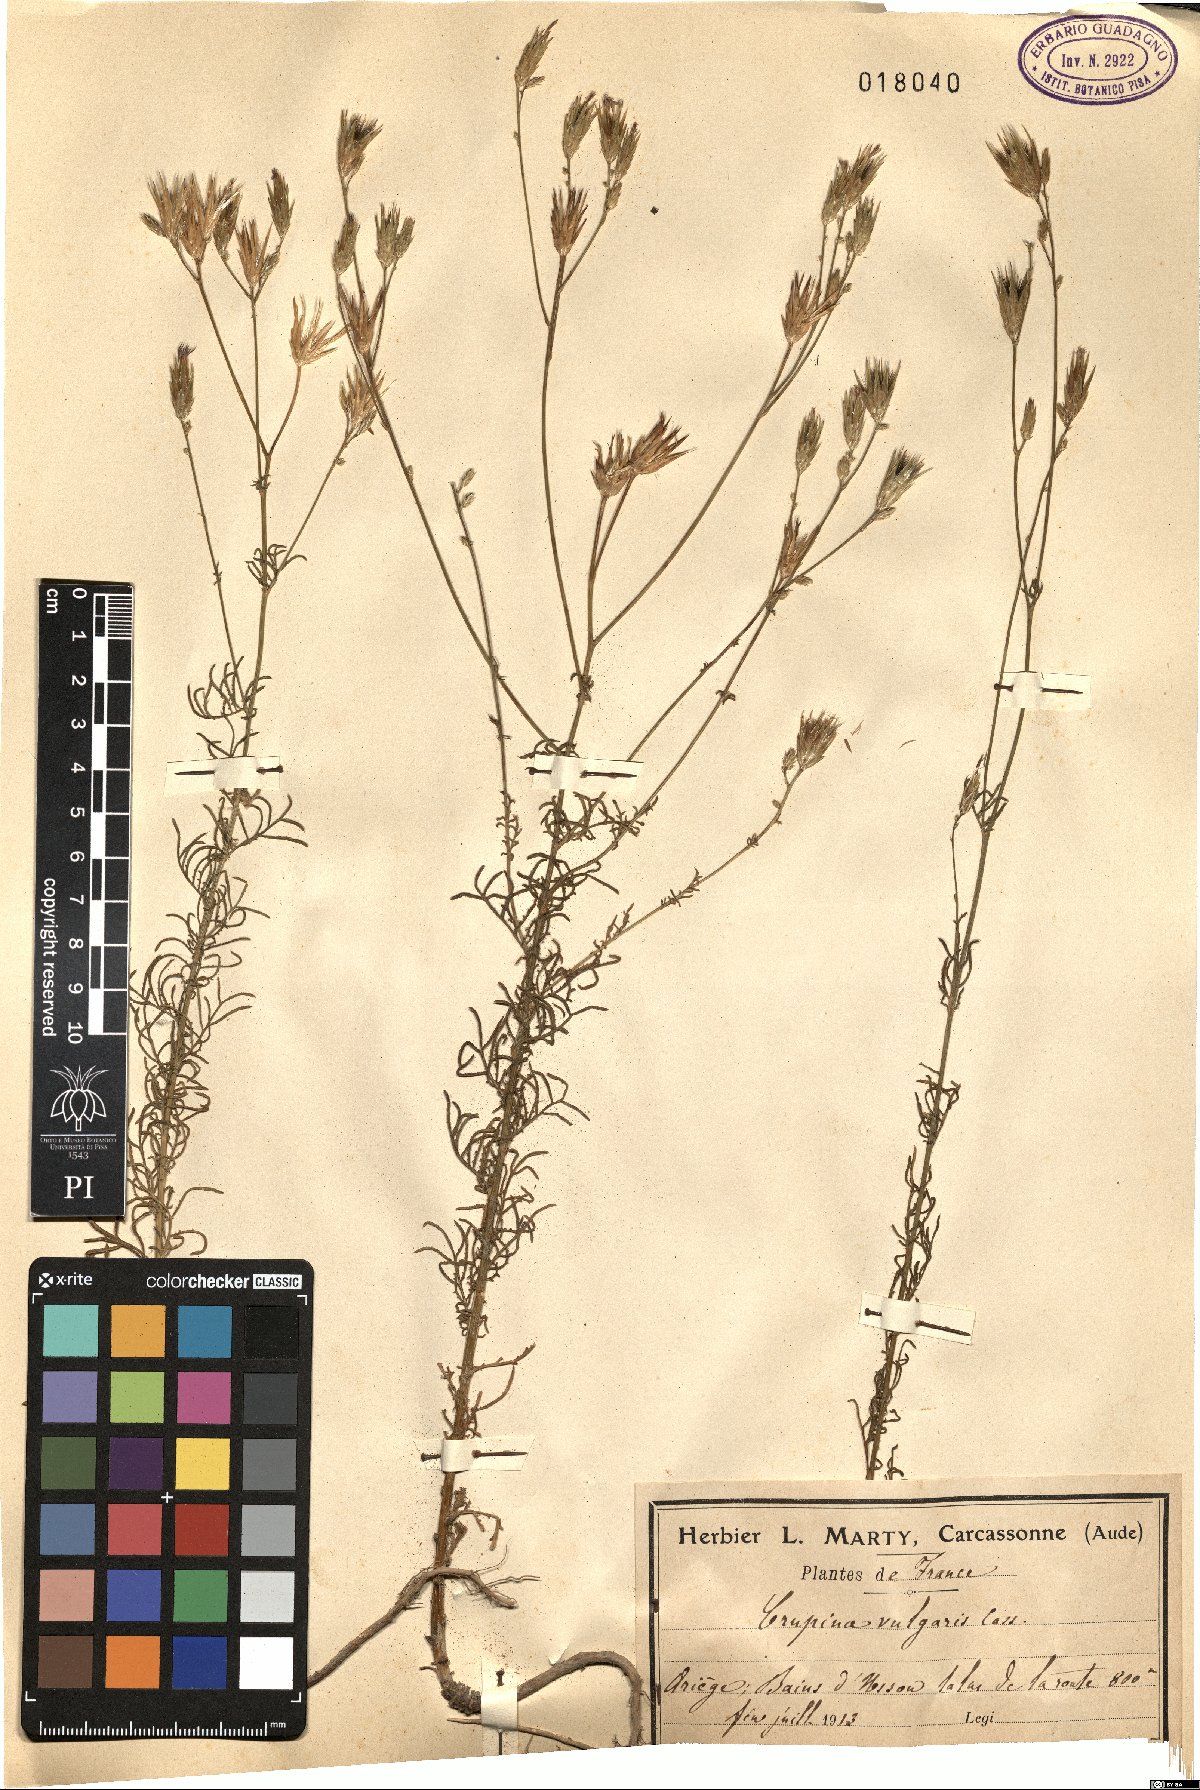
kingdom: Plantae
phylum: Tracheophyta
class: Magnoliopsida
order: Asterales
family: Asteraceae
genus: Crupina
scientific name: Crupina vulgaris
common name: Common crupina
